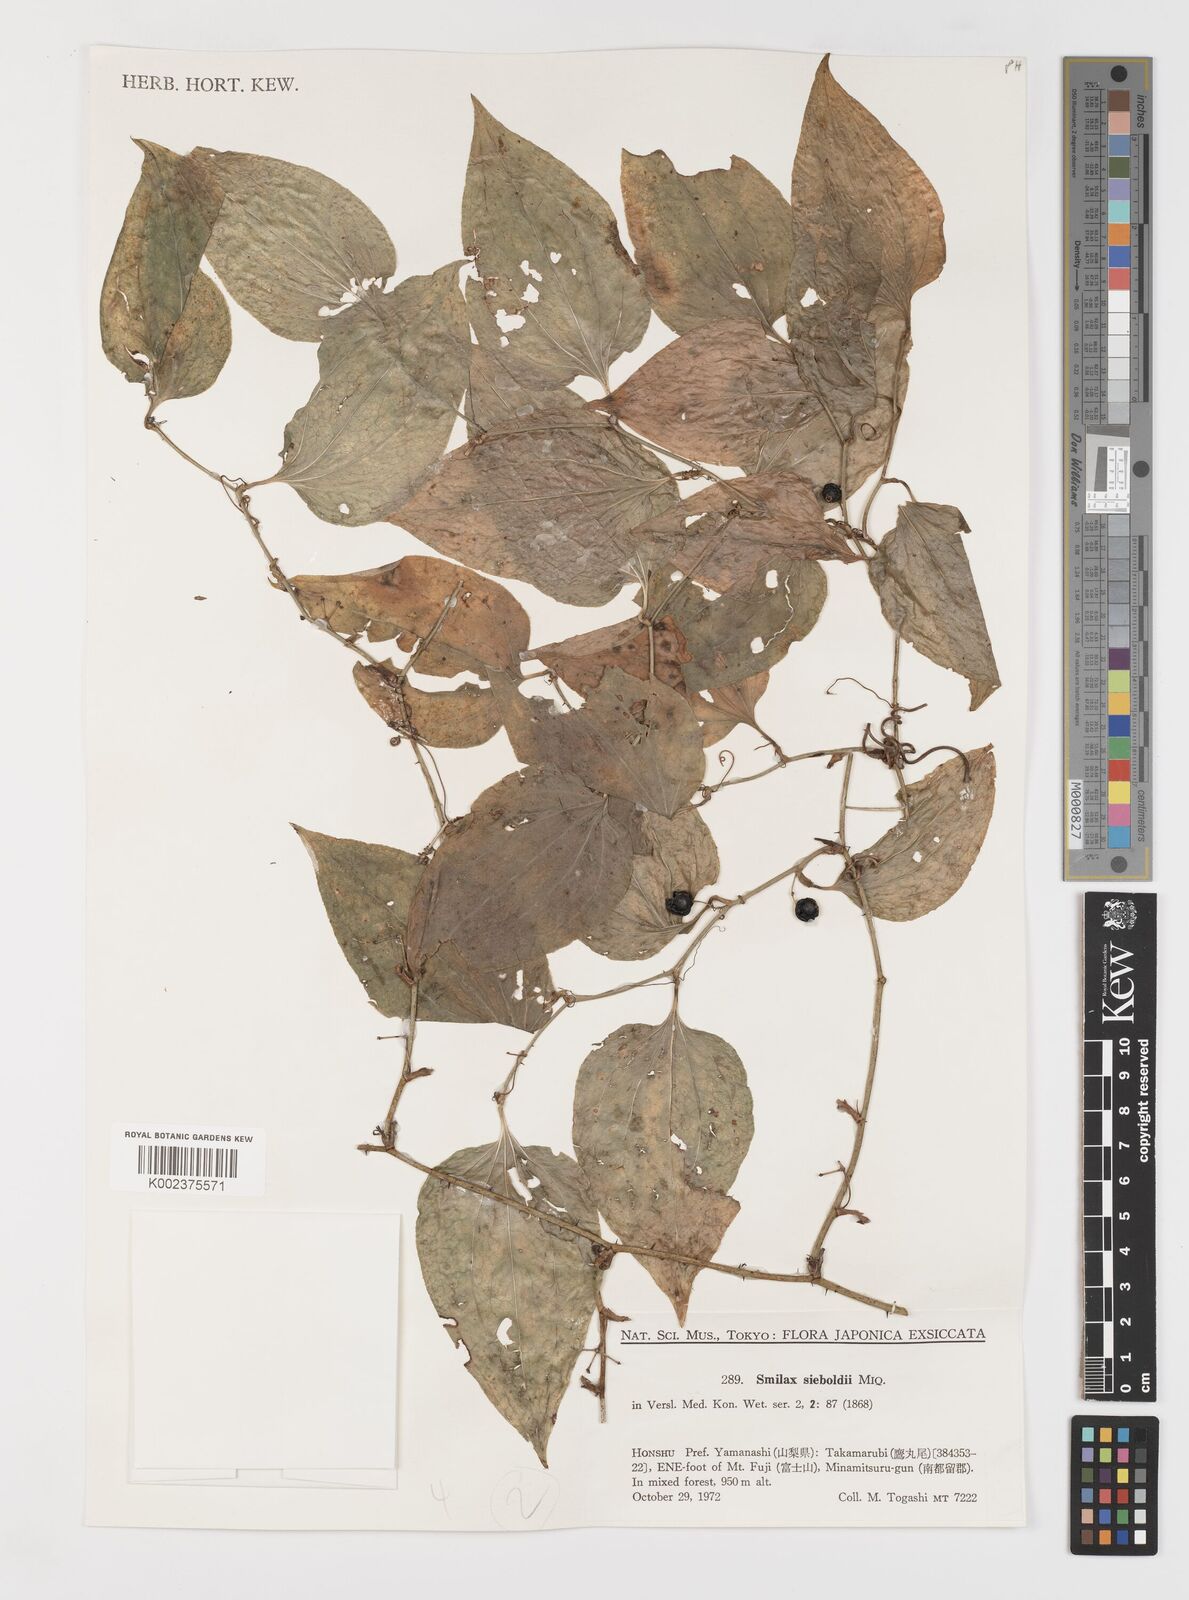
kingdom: Plantae
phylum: Tracheophyta
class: Liliopsida
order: Liliales
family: Smilacaceae
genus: Smilax
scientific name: Smilax sieboldii
